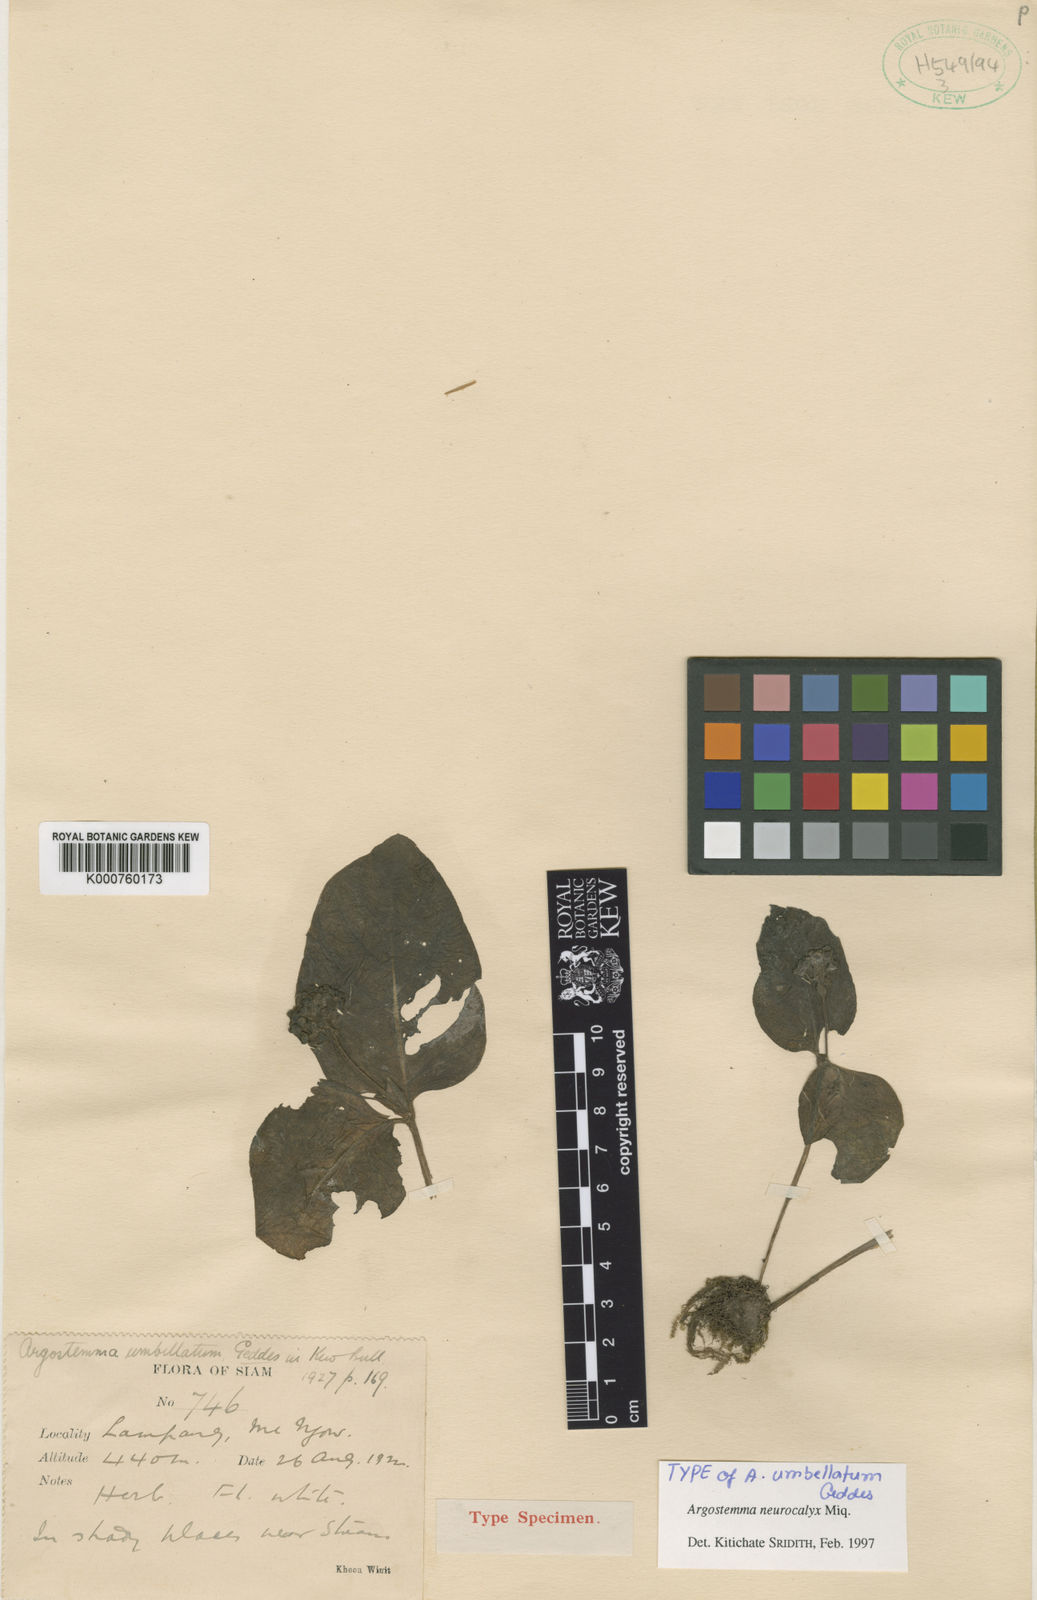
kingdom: Plantae
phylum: Tracheophyta
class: Magnoliopsida
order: Gentianales
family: Rubiaceae
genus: Argostemma
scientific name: Argostemma neurocalyx
